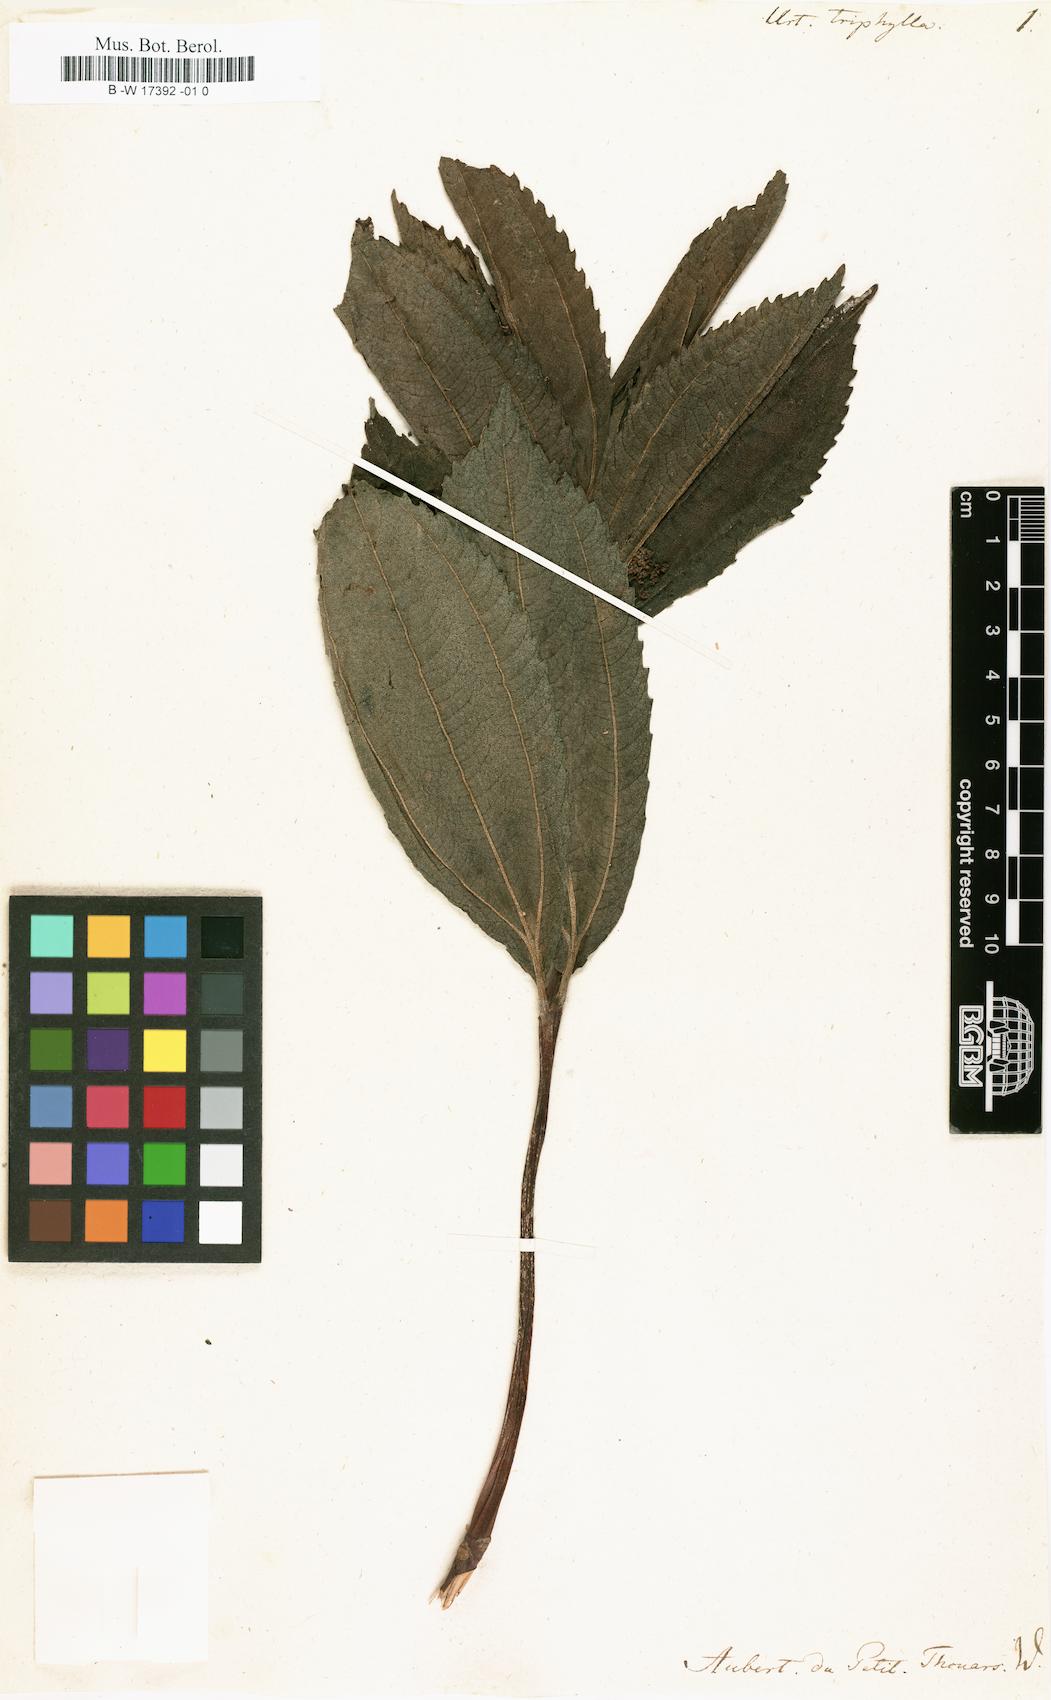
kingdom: Plantae
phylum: Tracheophyta
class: Magnoliopsida
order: Rosales
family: Urticaceae
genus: Urtica
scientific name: Urtica
